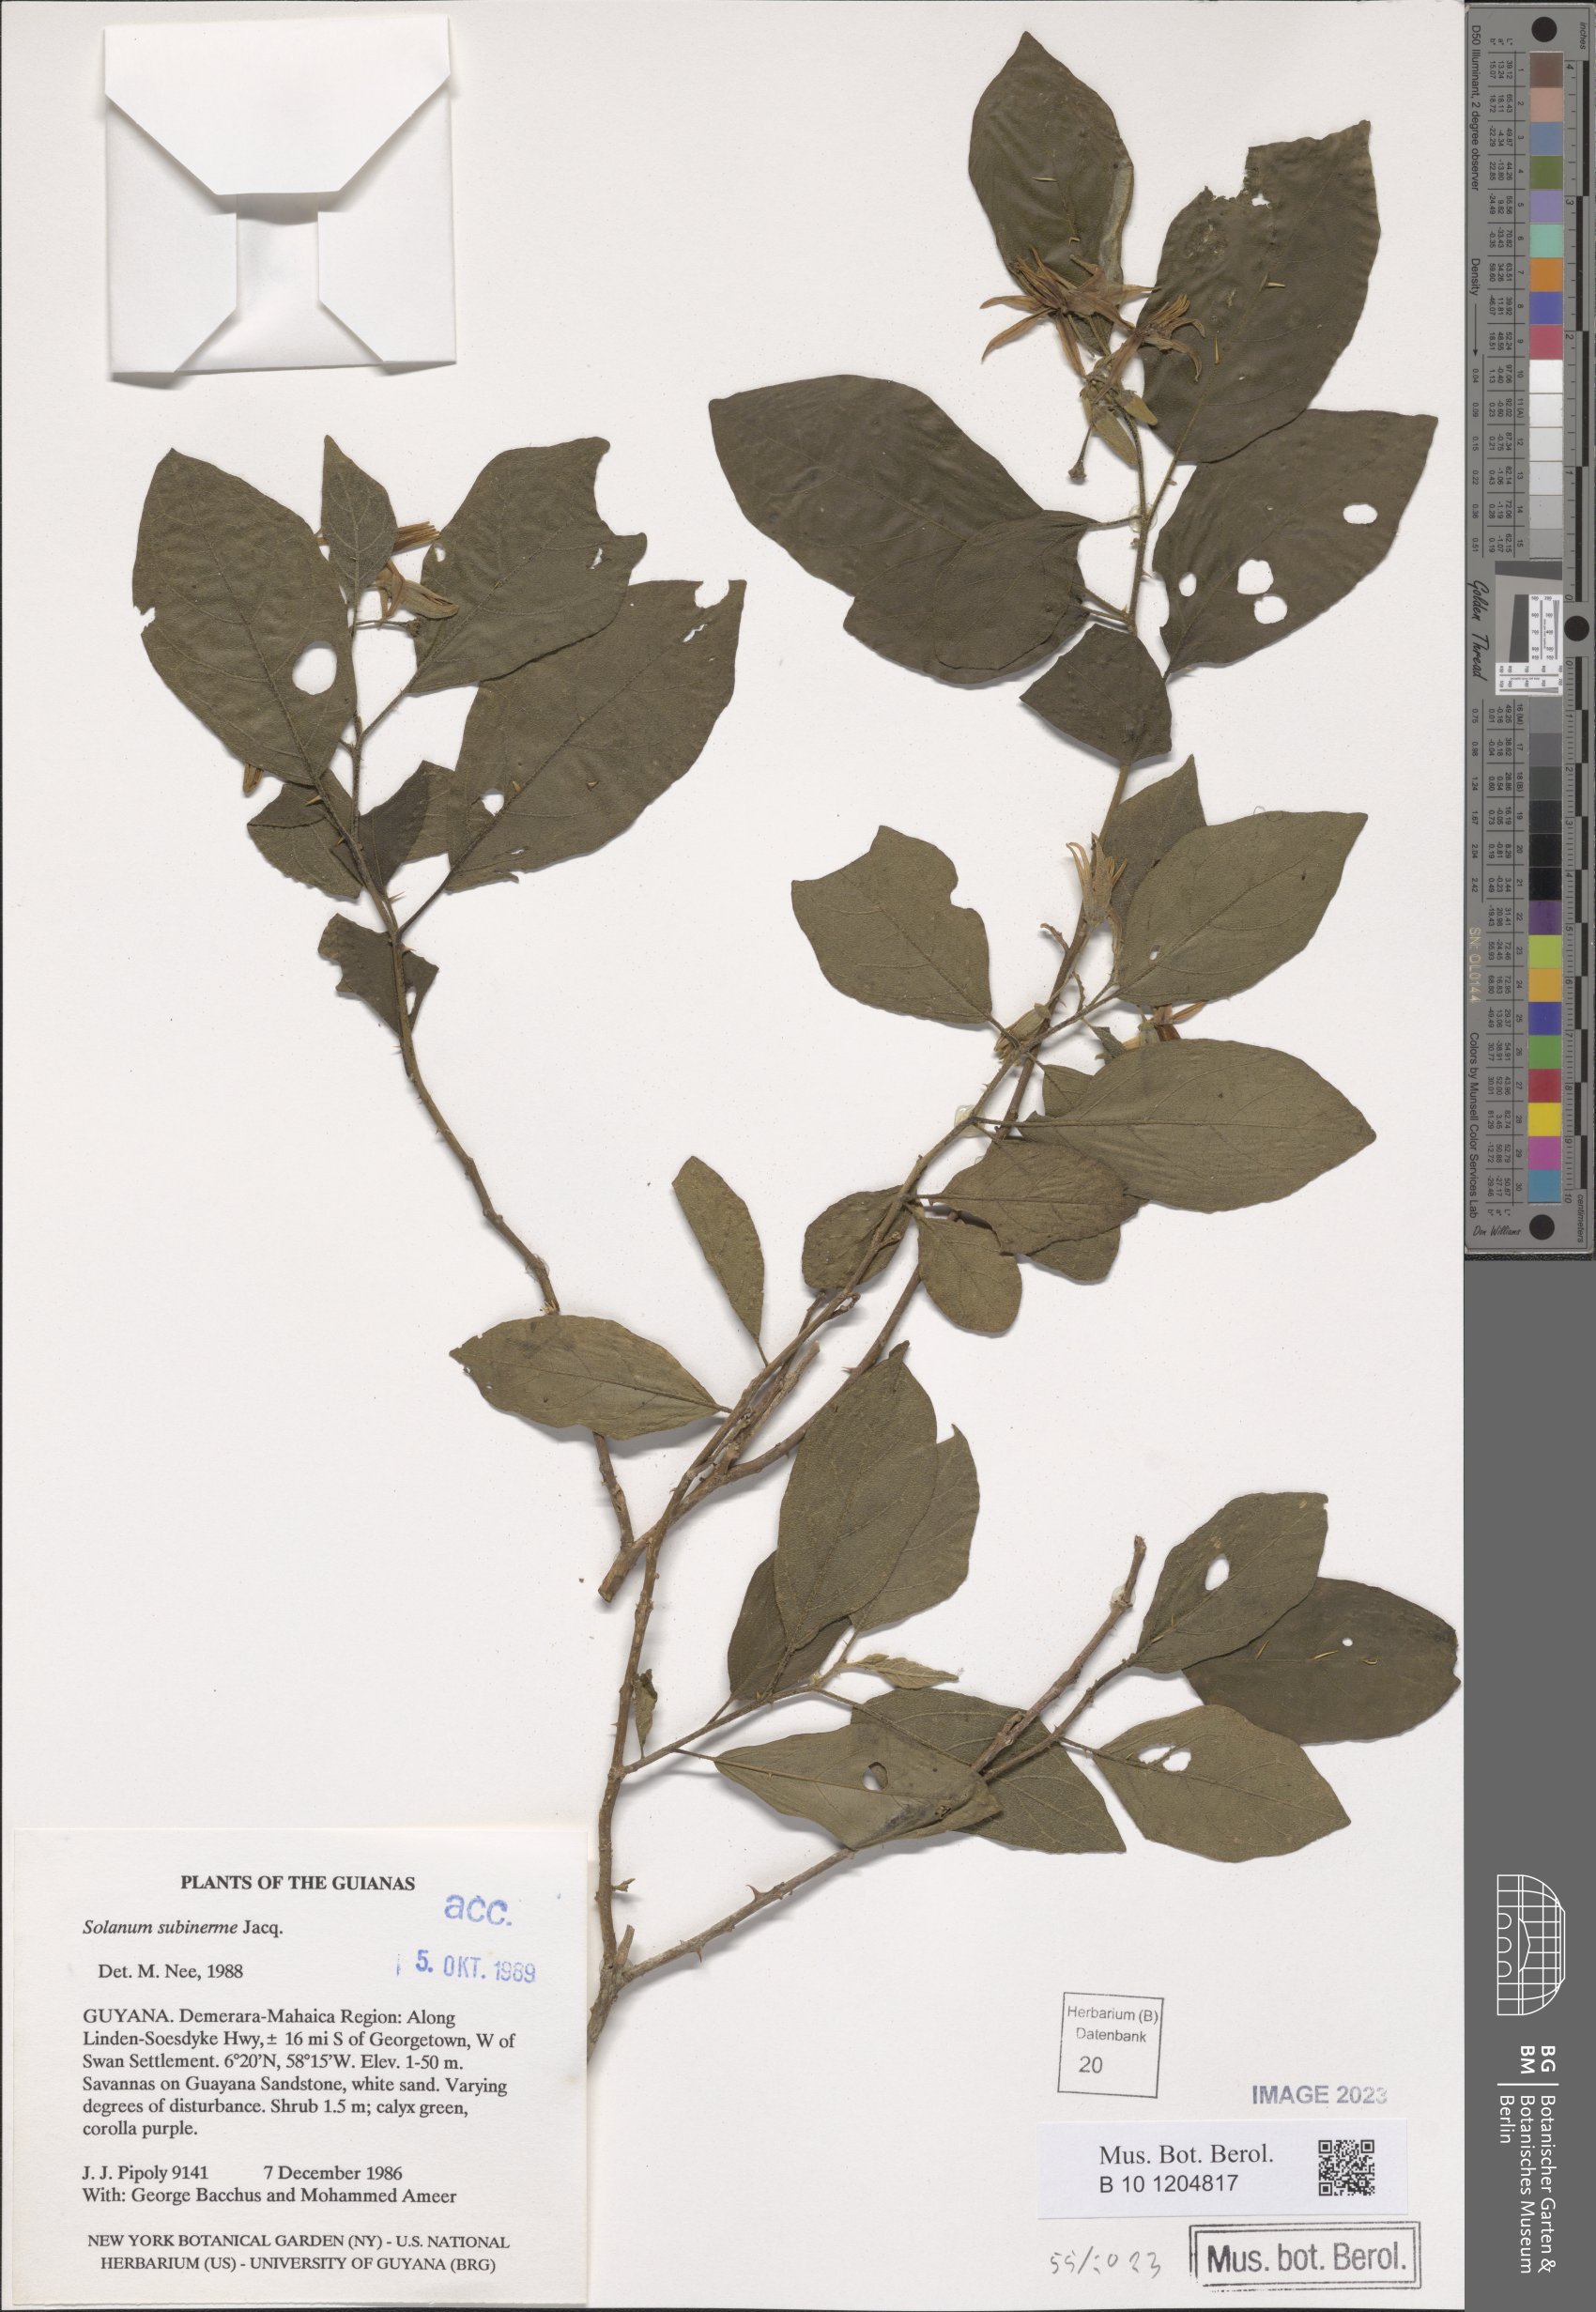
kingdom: Plantae
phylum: Tracheophyta
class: Magnoliopsida
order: Solanales
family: Solanaceae
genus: Solanum
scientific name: Solanum subinerme
